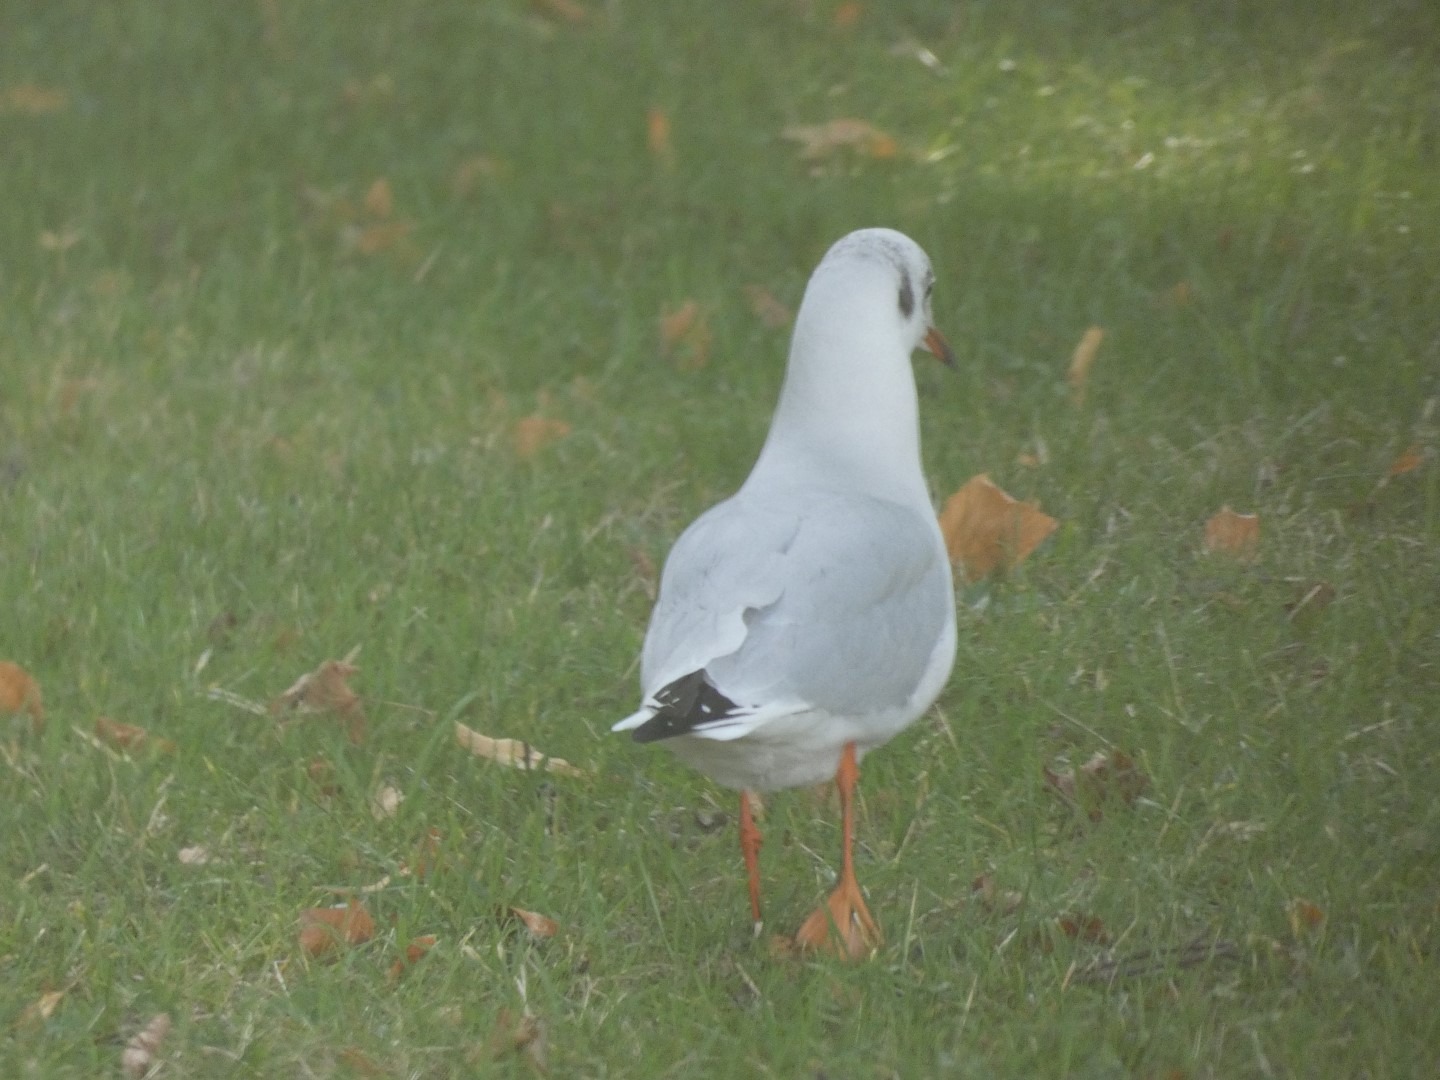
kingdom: Animalia
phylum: Chordata
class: Aves
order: Charadriiformes
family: Laridae
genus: Chroicocephalus
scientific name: Chroicocephalus ridibundus
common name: Hættemåge
